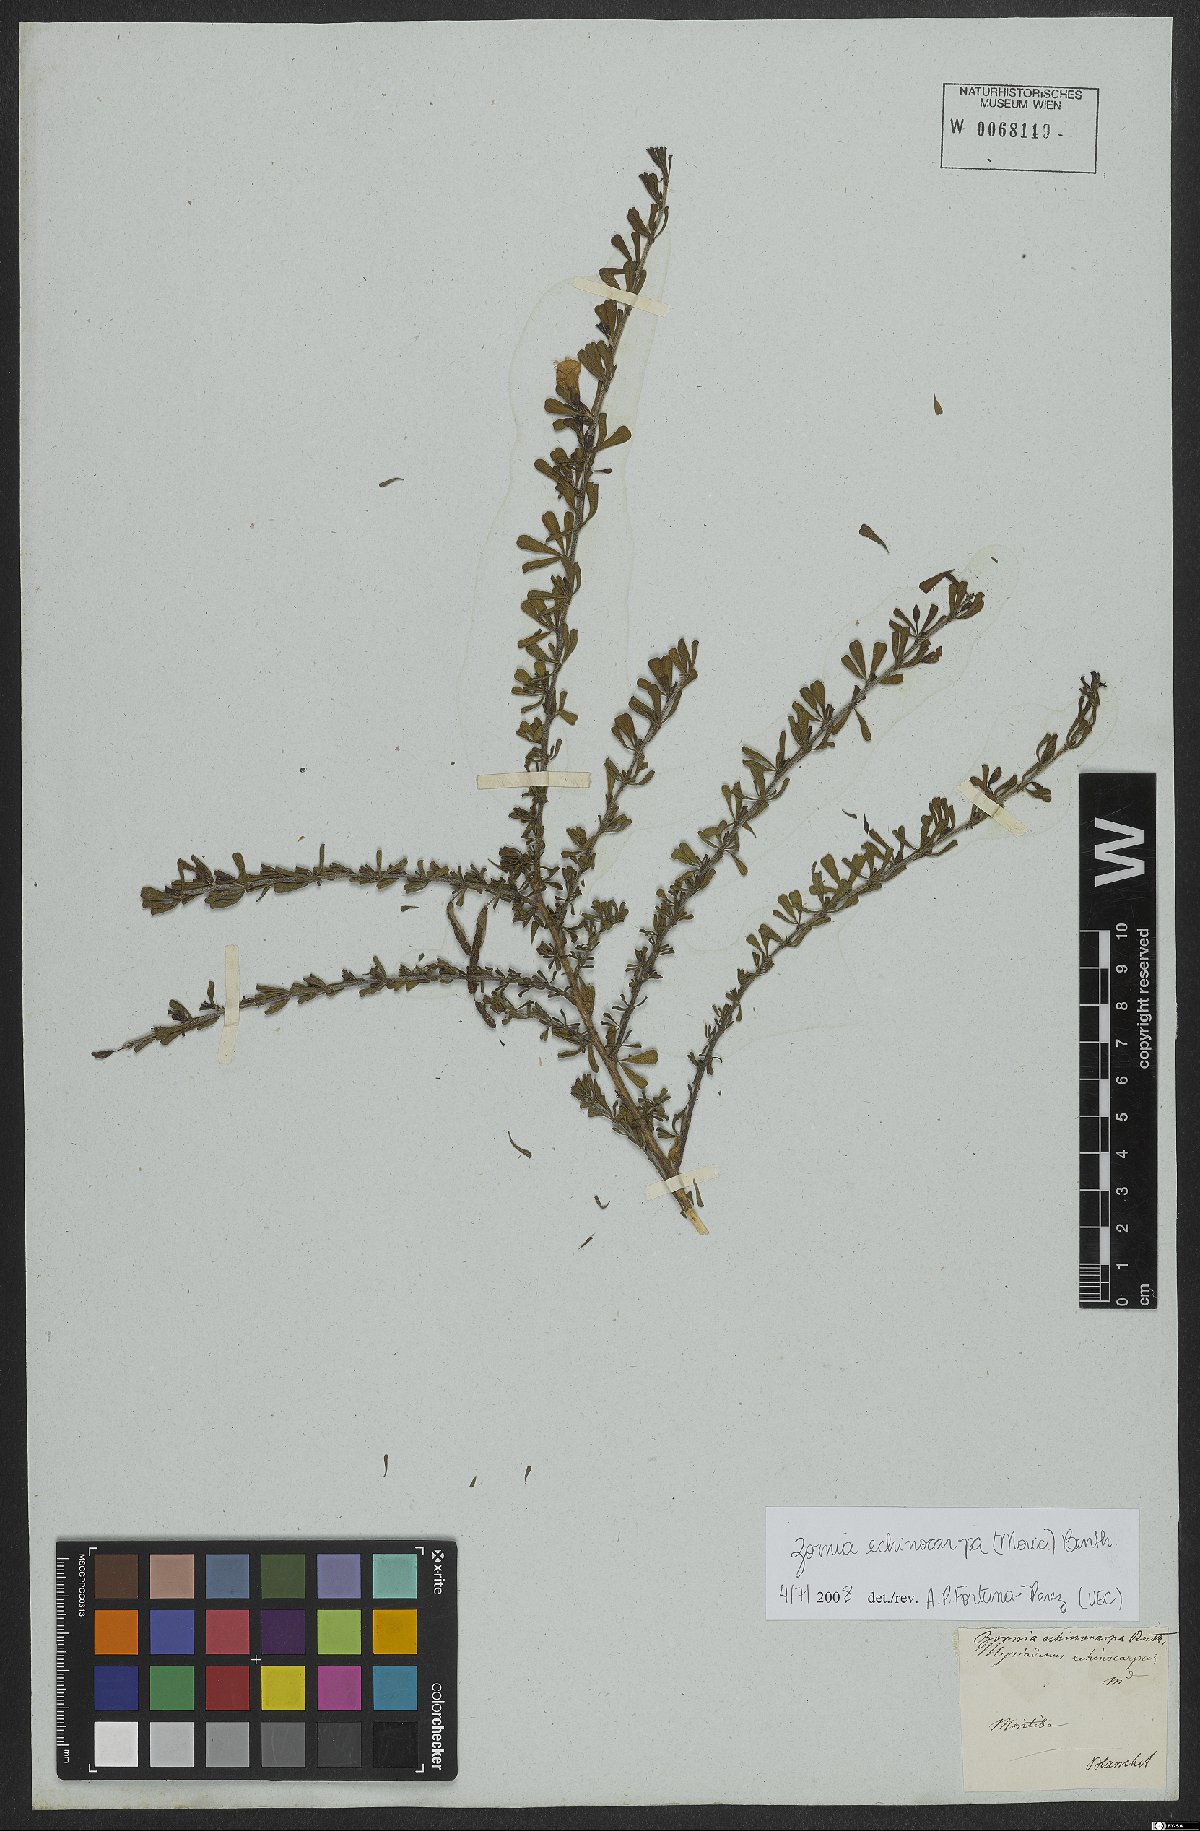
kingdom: Plantae
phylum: Tracheophyta
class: Magnoliopsida
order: Fabales
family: Fabaceae
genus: Zornia
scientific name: Zornia echinocarpa
